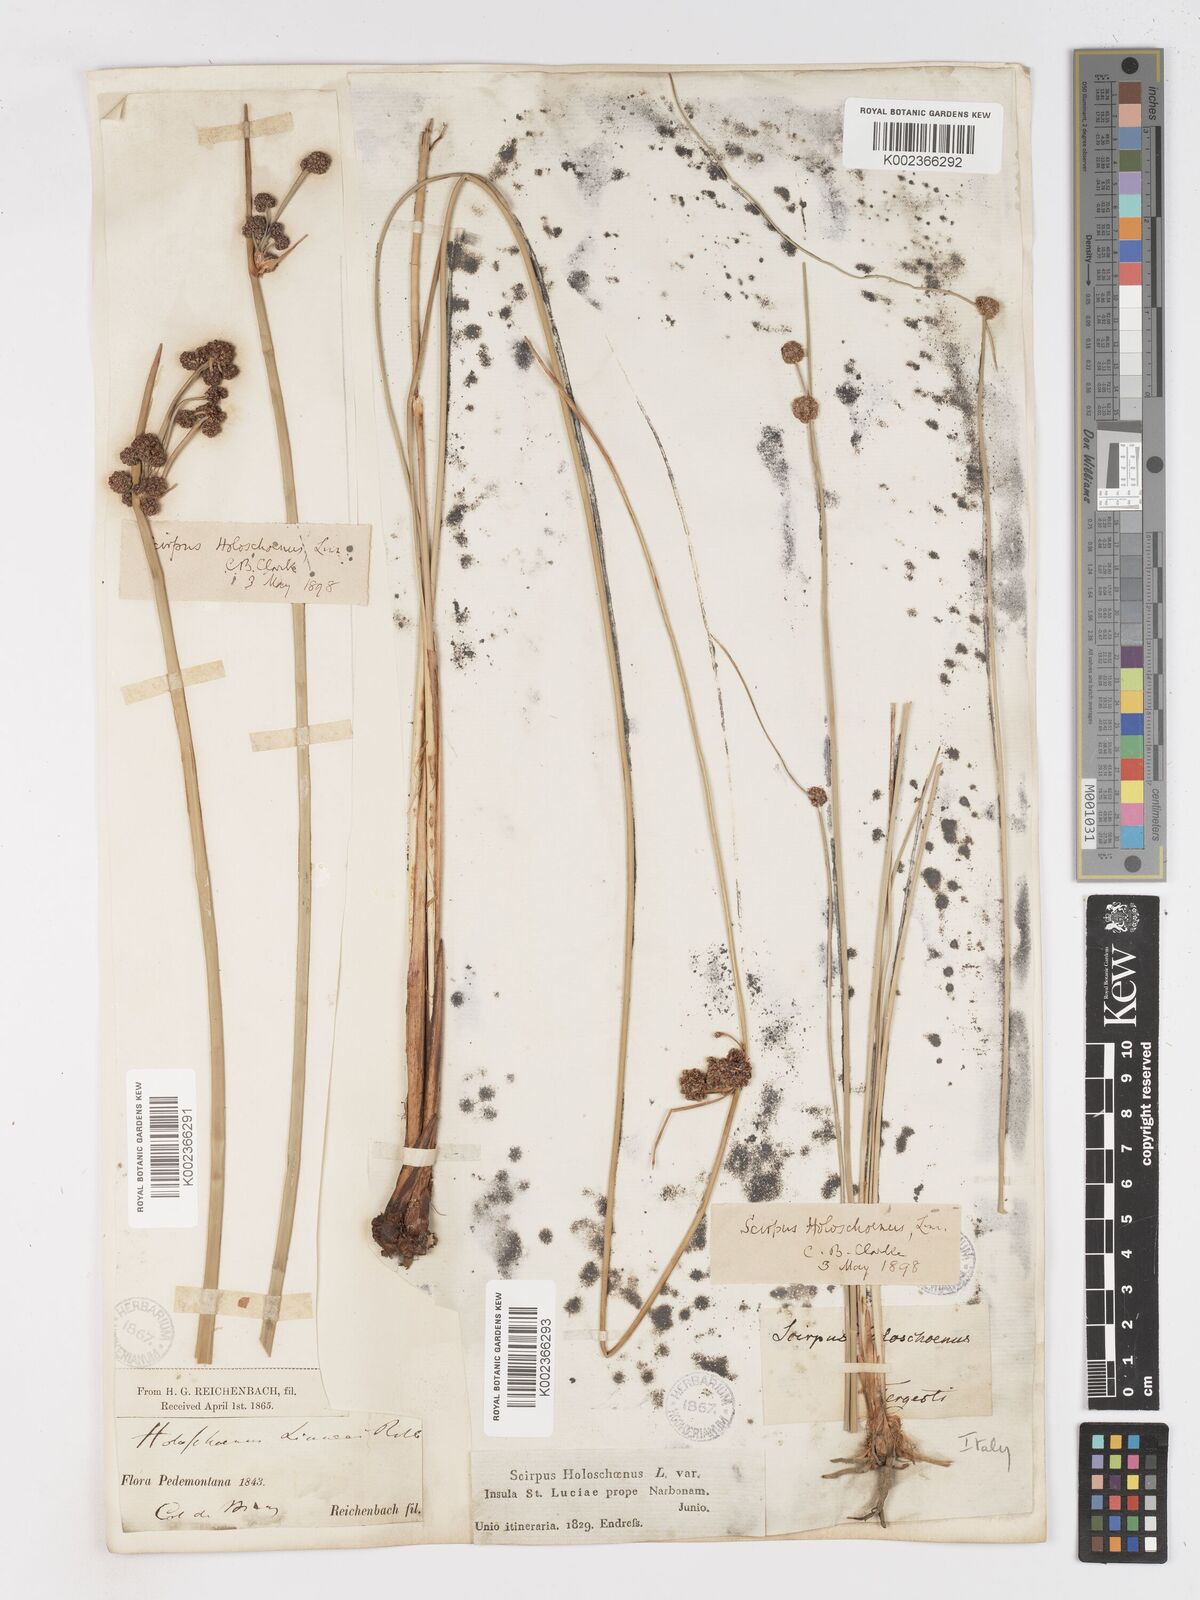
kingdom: Plantae
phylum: Tracheophyta
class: Liliopsida
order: Poales
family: Cyperaceae
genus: Scirpoides
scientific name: Scirpoides holoschoenus
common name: Round-headed club-rush
